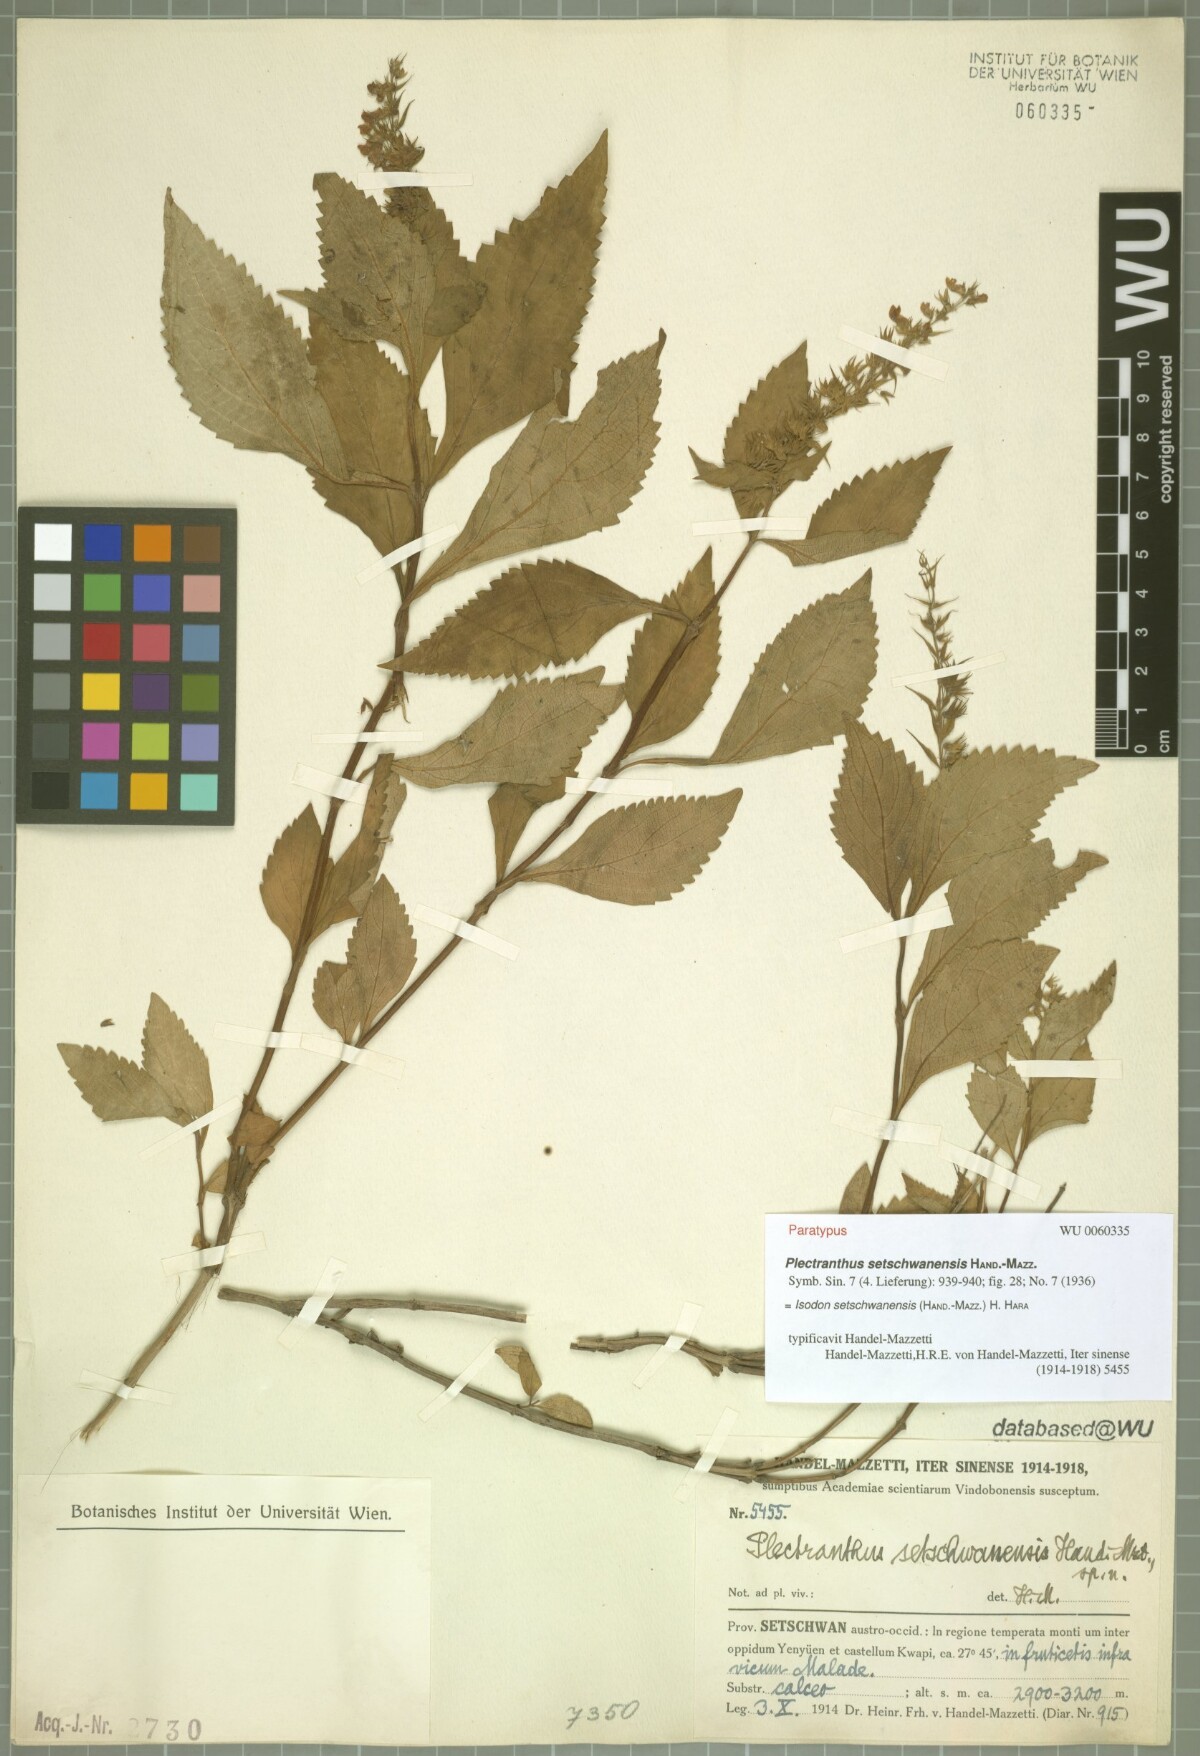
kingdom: Plantae
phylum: Tracheophyta
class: Magnoliopsida
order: Lamiales
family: Lamiaceae
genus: Isodon
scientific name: Isodon setschwanensis
